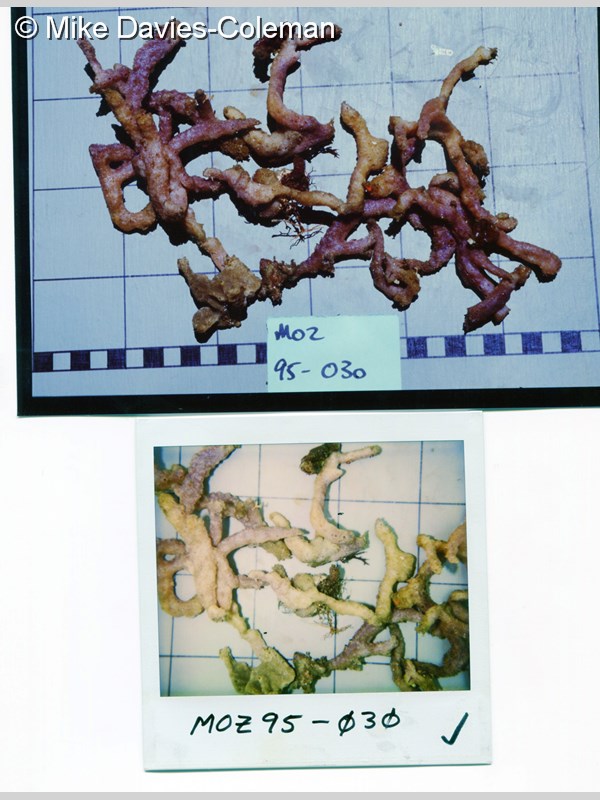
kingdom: Animalia
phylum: Porifera
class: Demospongiae
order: Haplosclerida
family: Niphatidae
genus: Cribrochalina
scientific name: Cribrochalina
